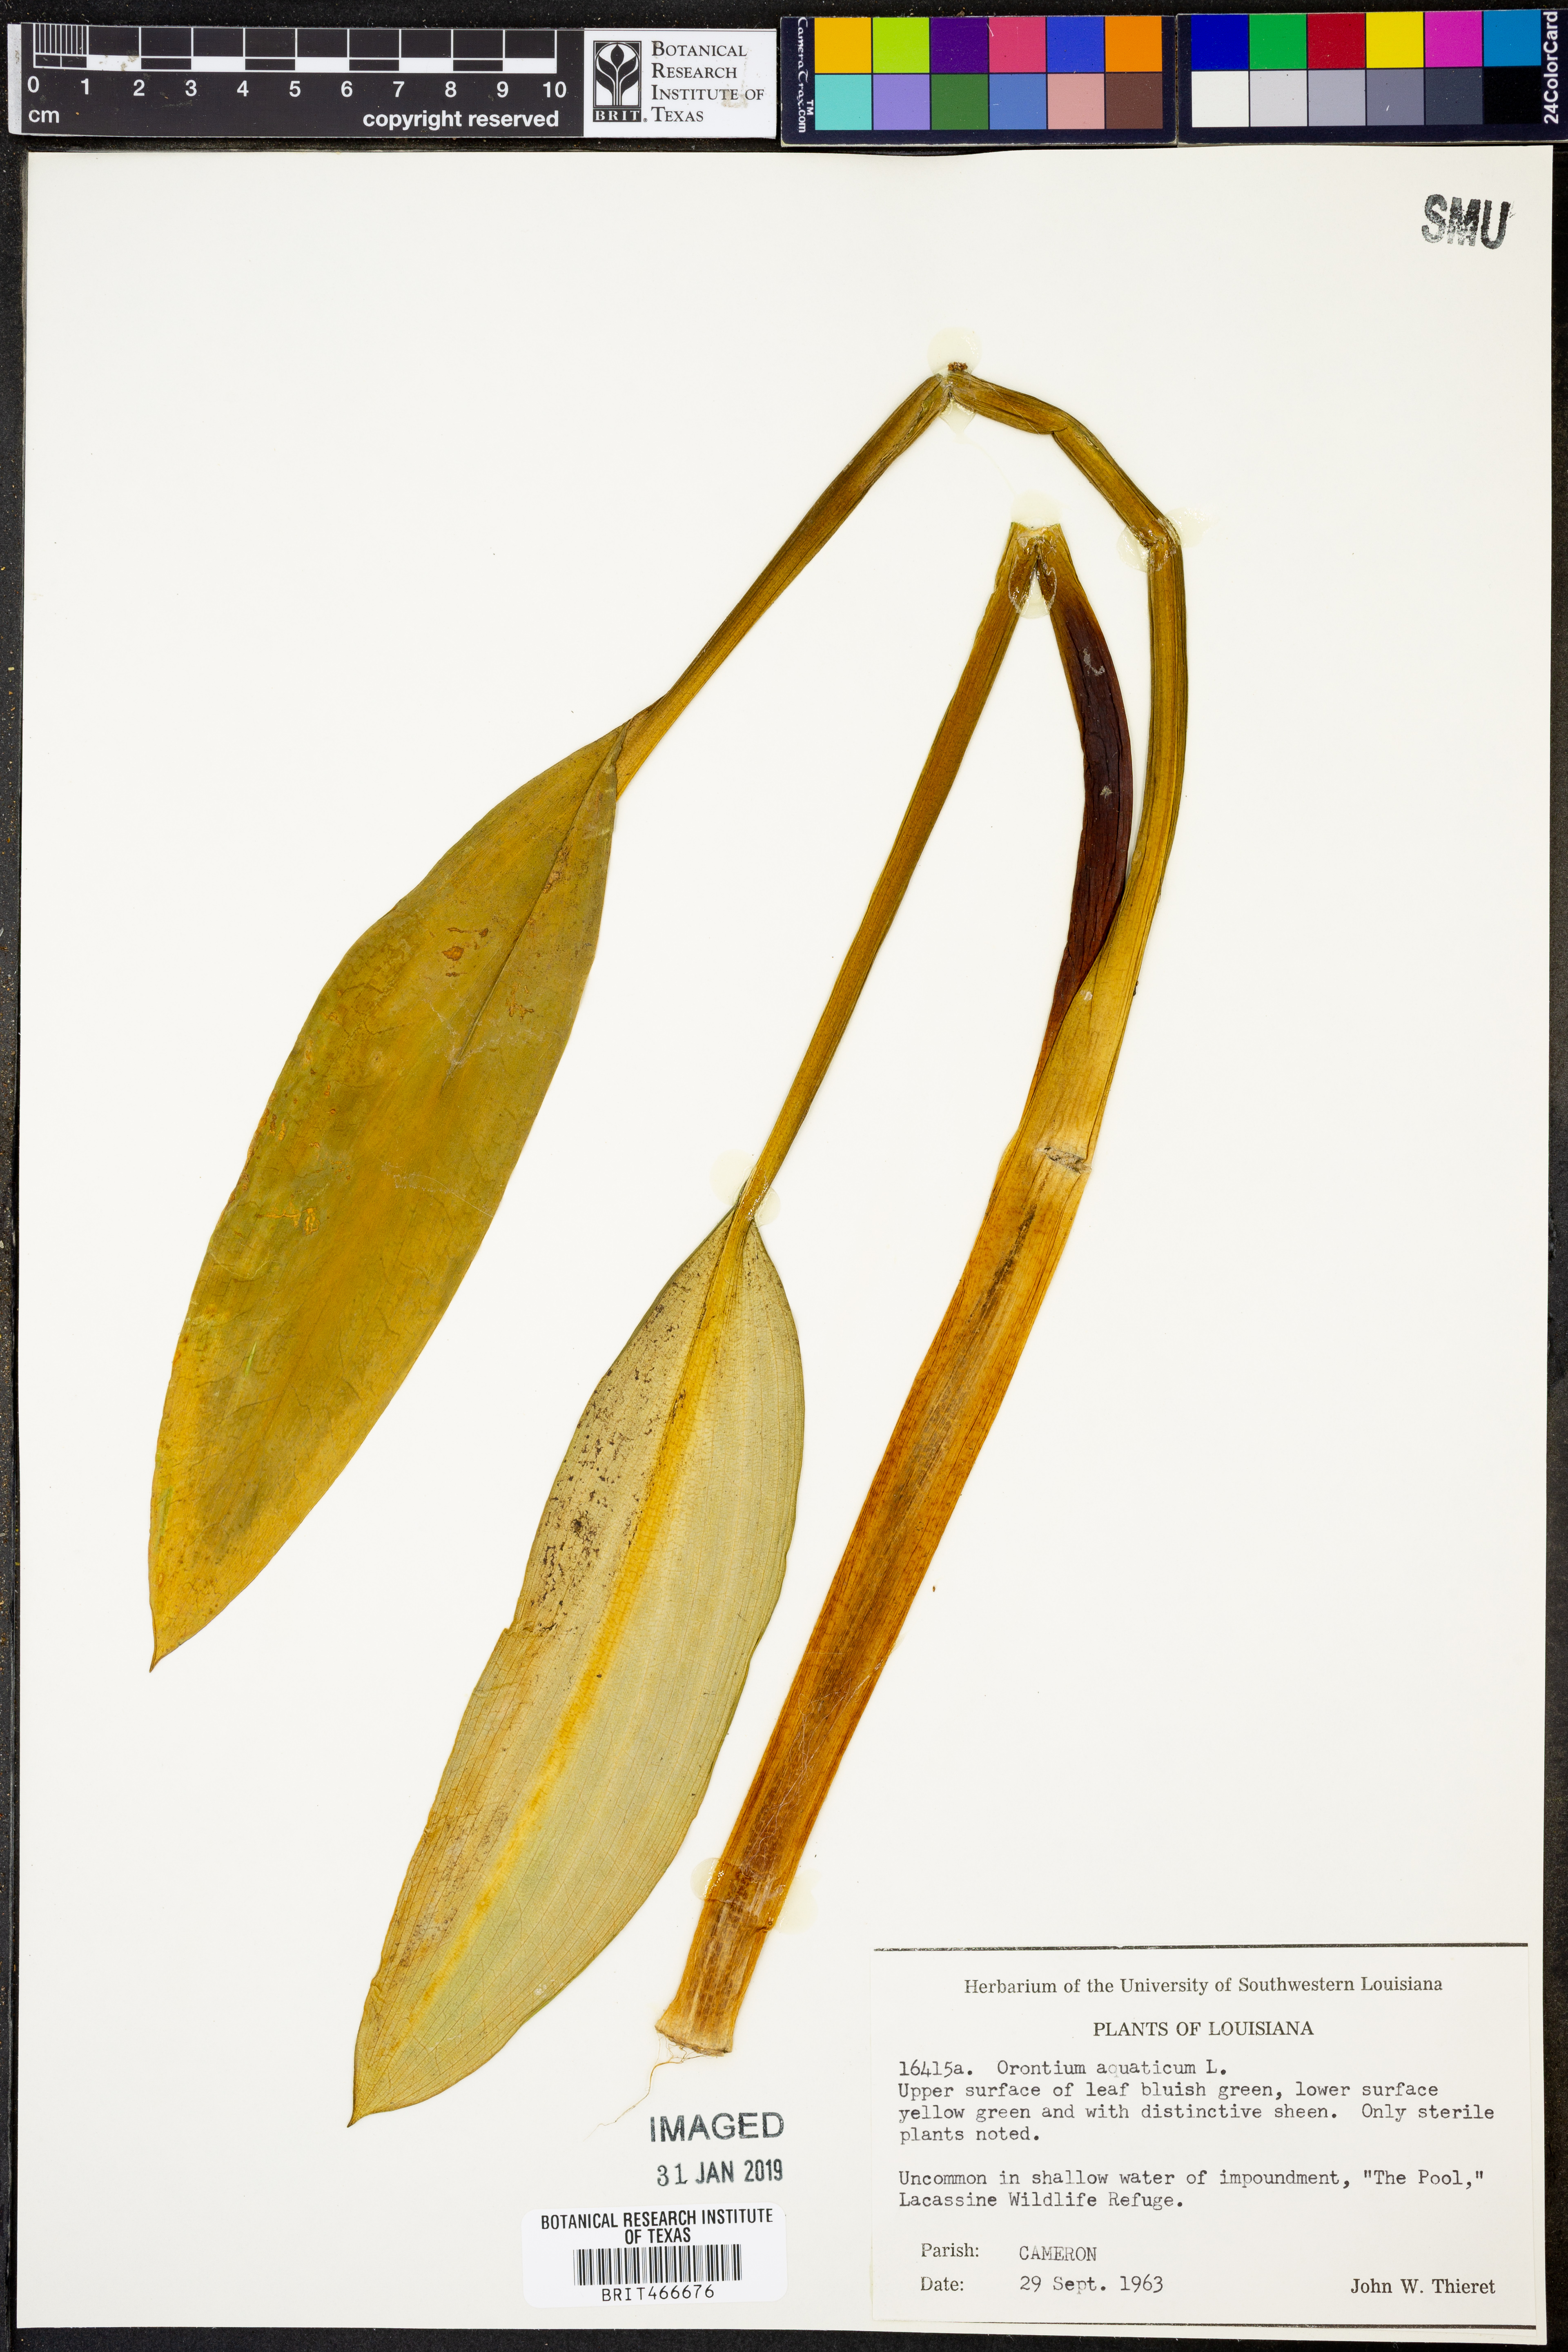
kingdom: Plantae
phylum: Tracheophyta
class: Liliopsida
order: Alismatales
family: Araceae
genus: Orontium
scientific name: Orontium aquaticum
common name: Golden-club
